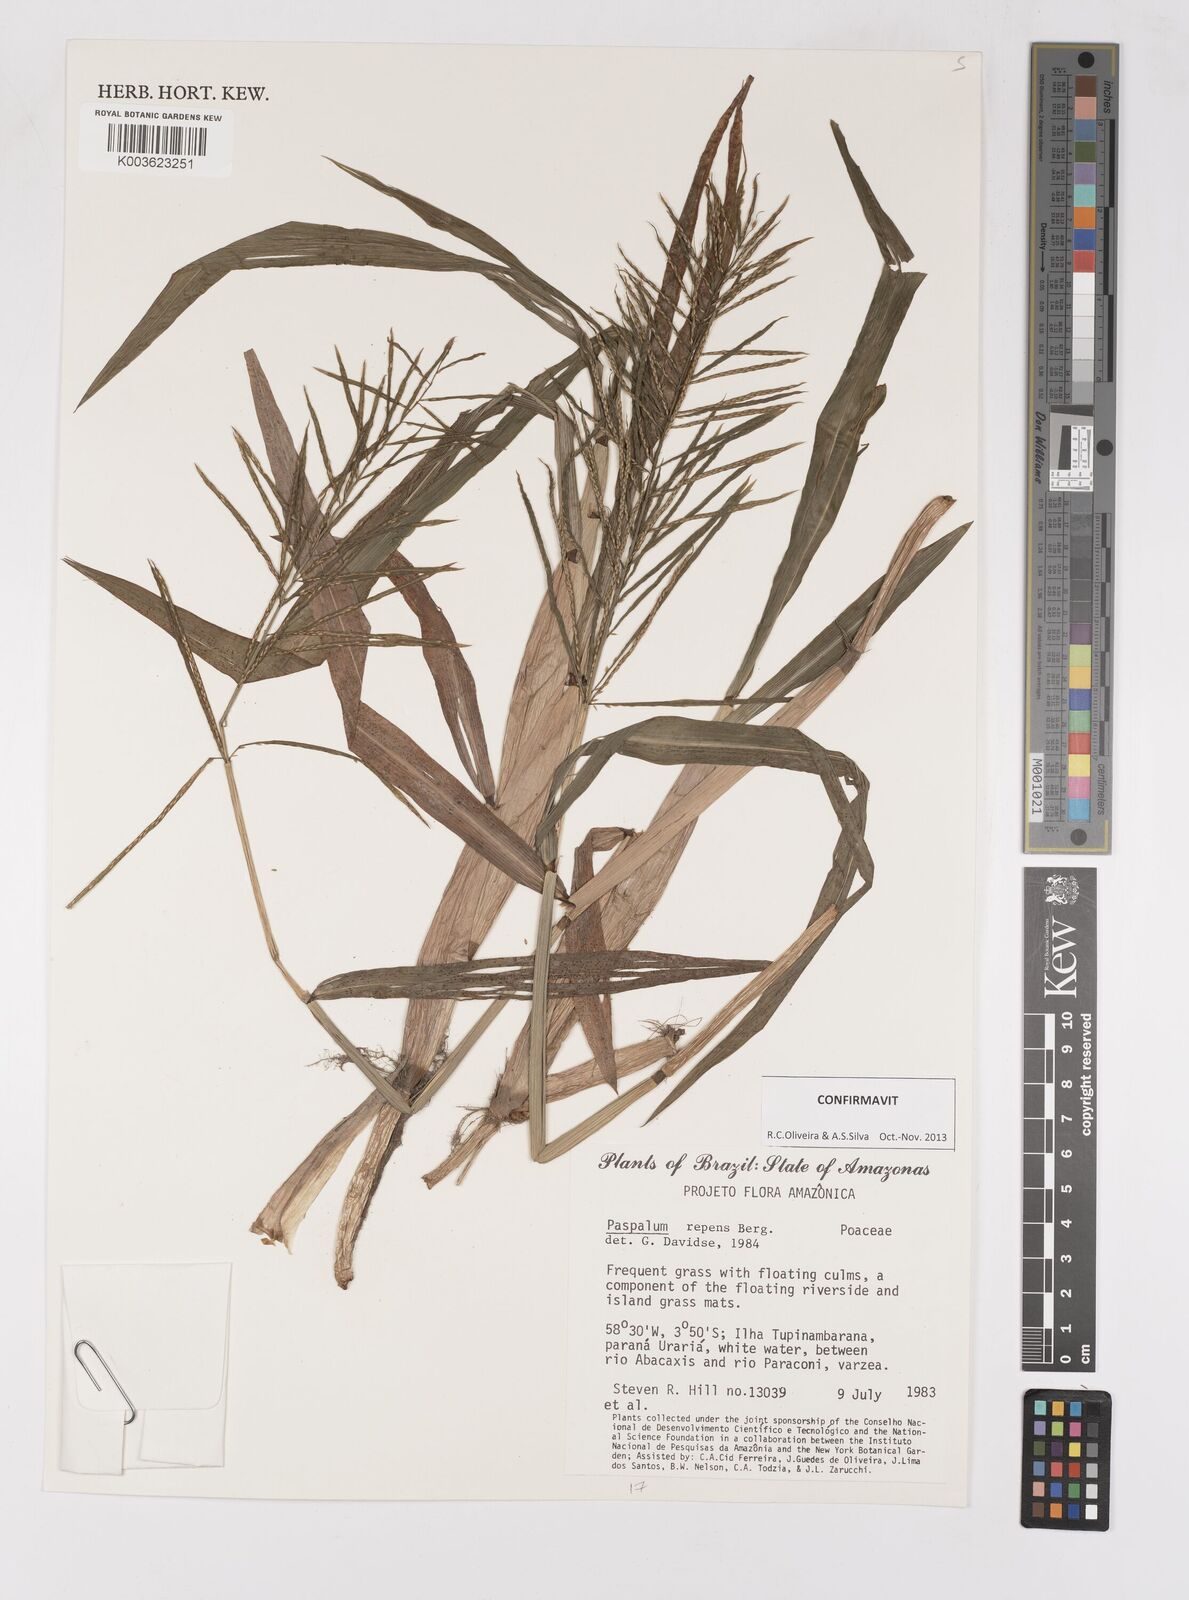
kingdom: Plantae
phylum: Tracheophyta
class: Liliopsida
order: Poales
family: Poaceae
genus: Paspalum
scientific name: Paspalum repens
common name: Water paspalum
